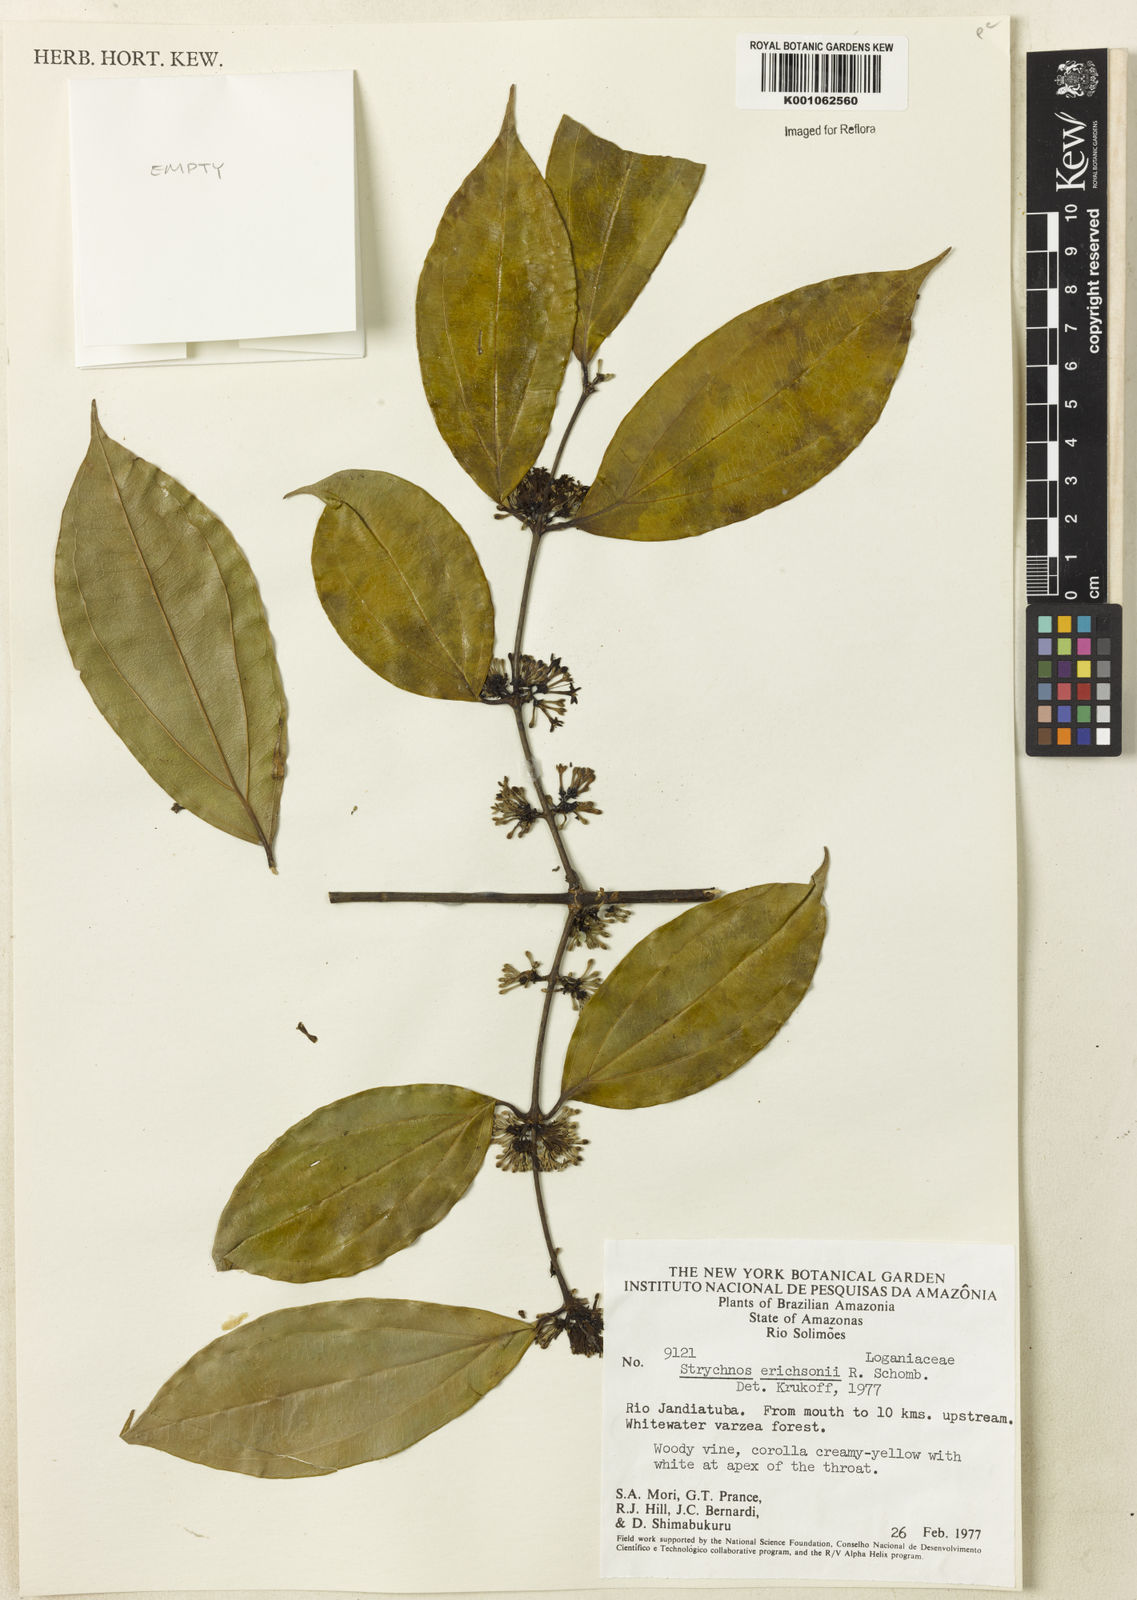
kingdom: Plantae
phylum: Tracheophyta
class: Magnoliopsida
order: Gentianales
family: Loganiaceae
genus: Strychnos
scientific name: Strychnos erichsonii
